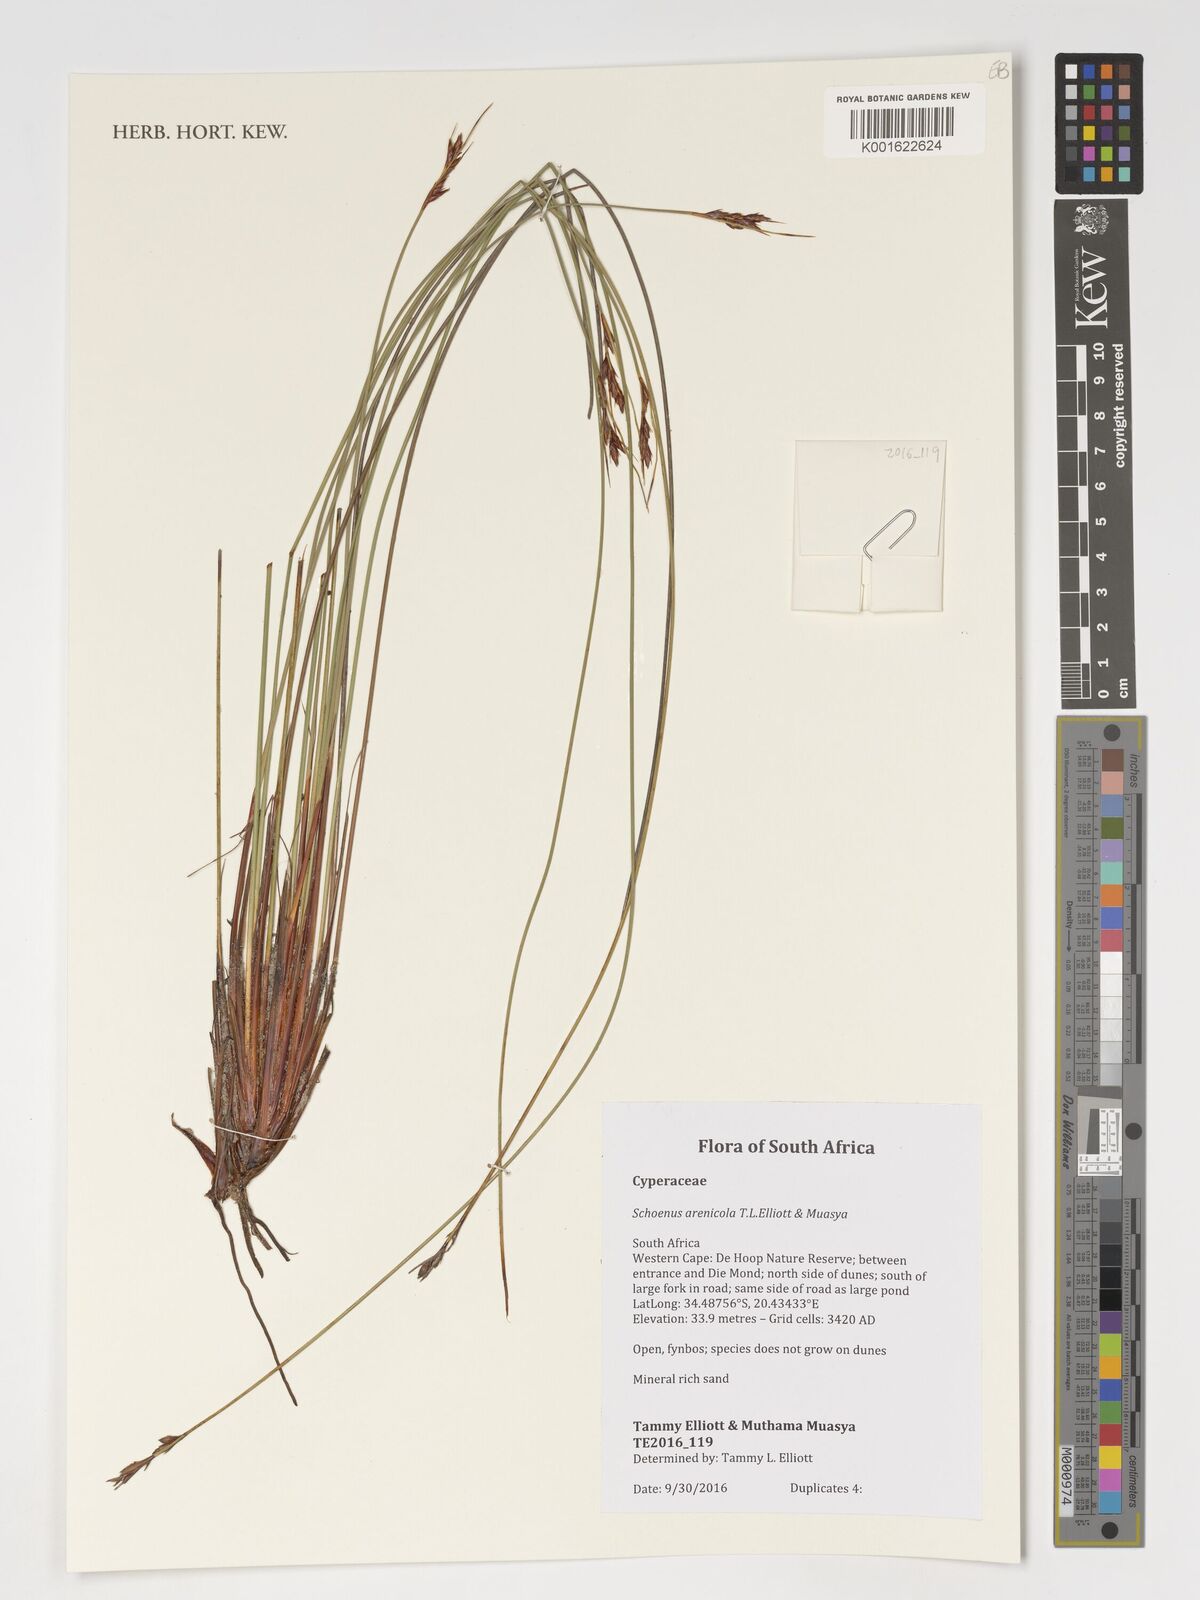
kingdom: Plantae
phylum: Tracheophyta
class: Liliopsida
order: Poales
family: Cyperaceae
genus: Schoenus
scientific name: Schoenus arenicola
